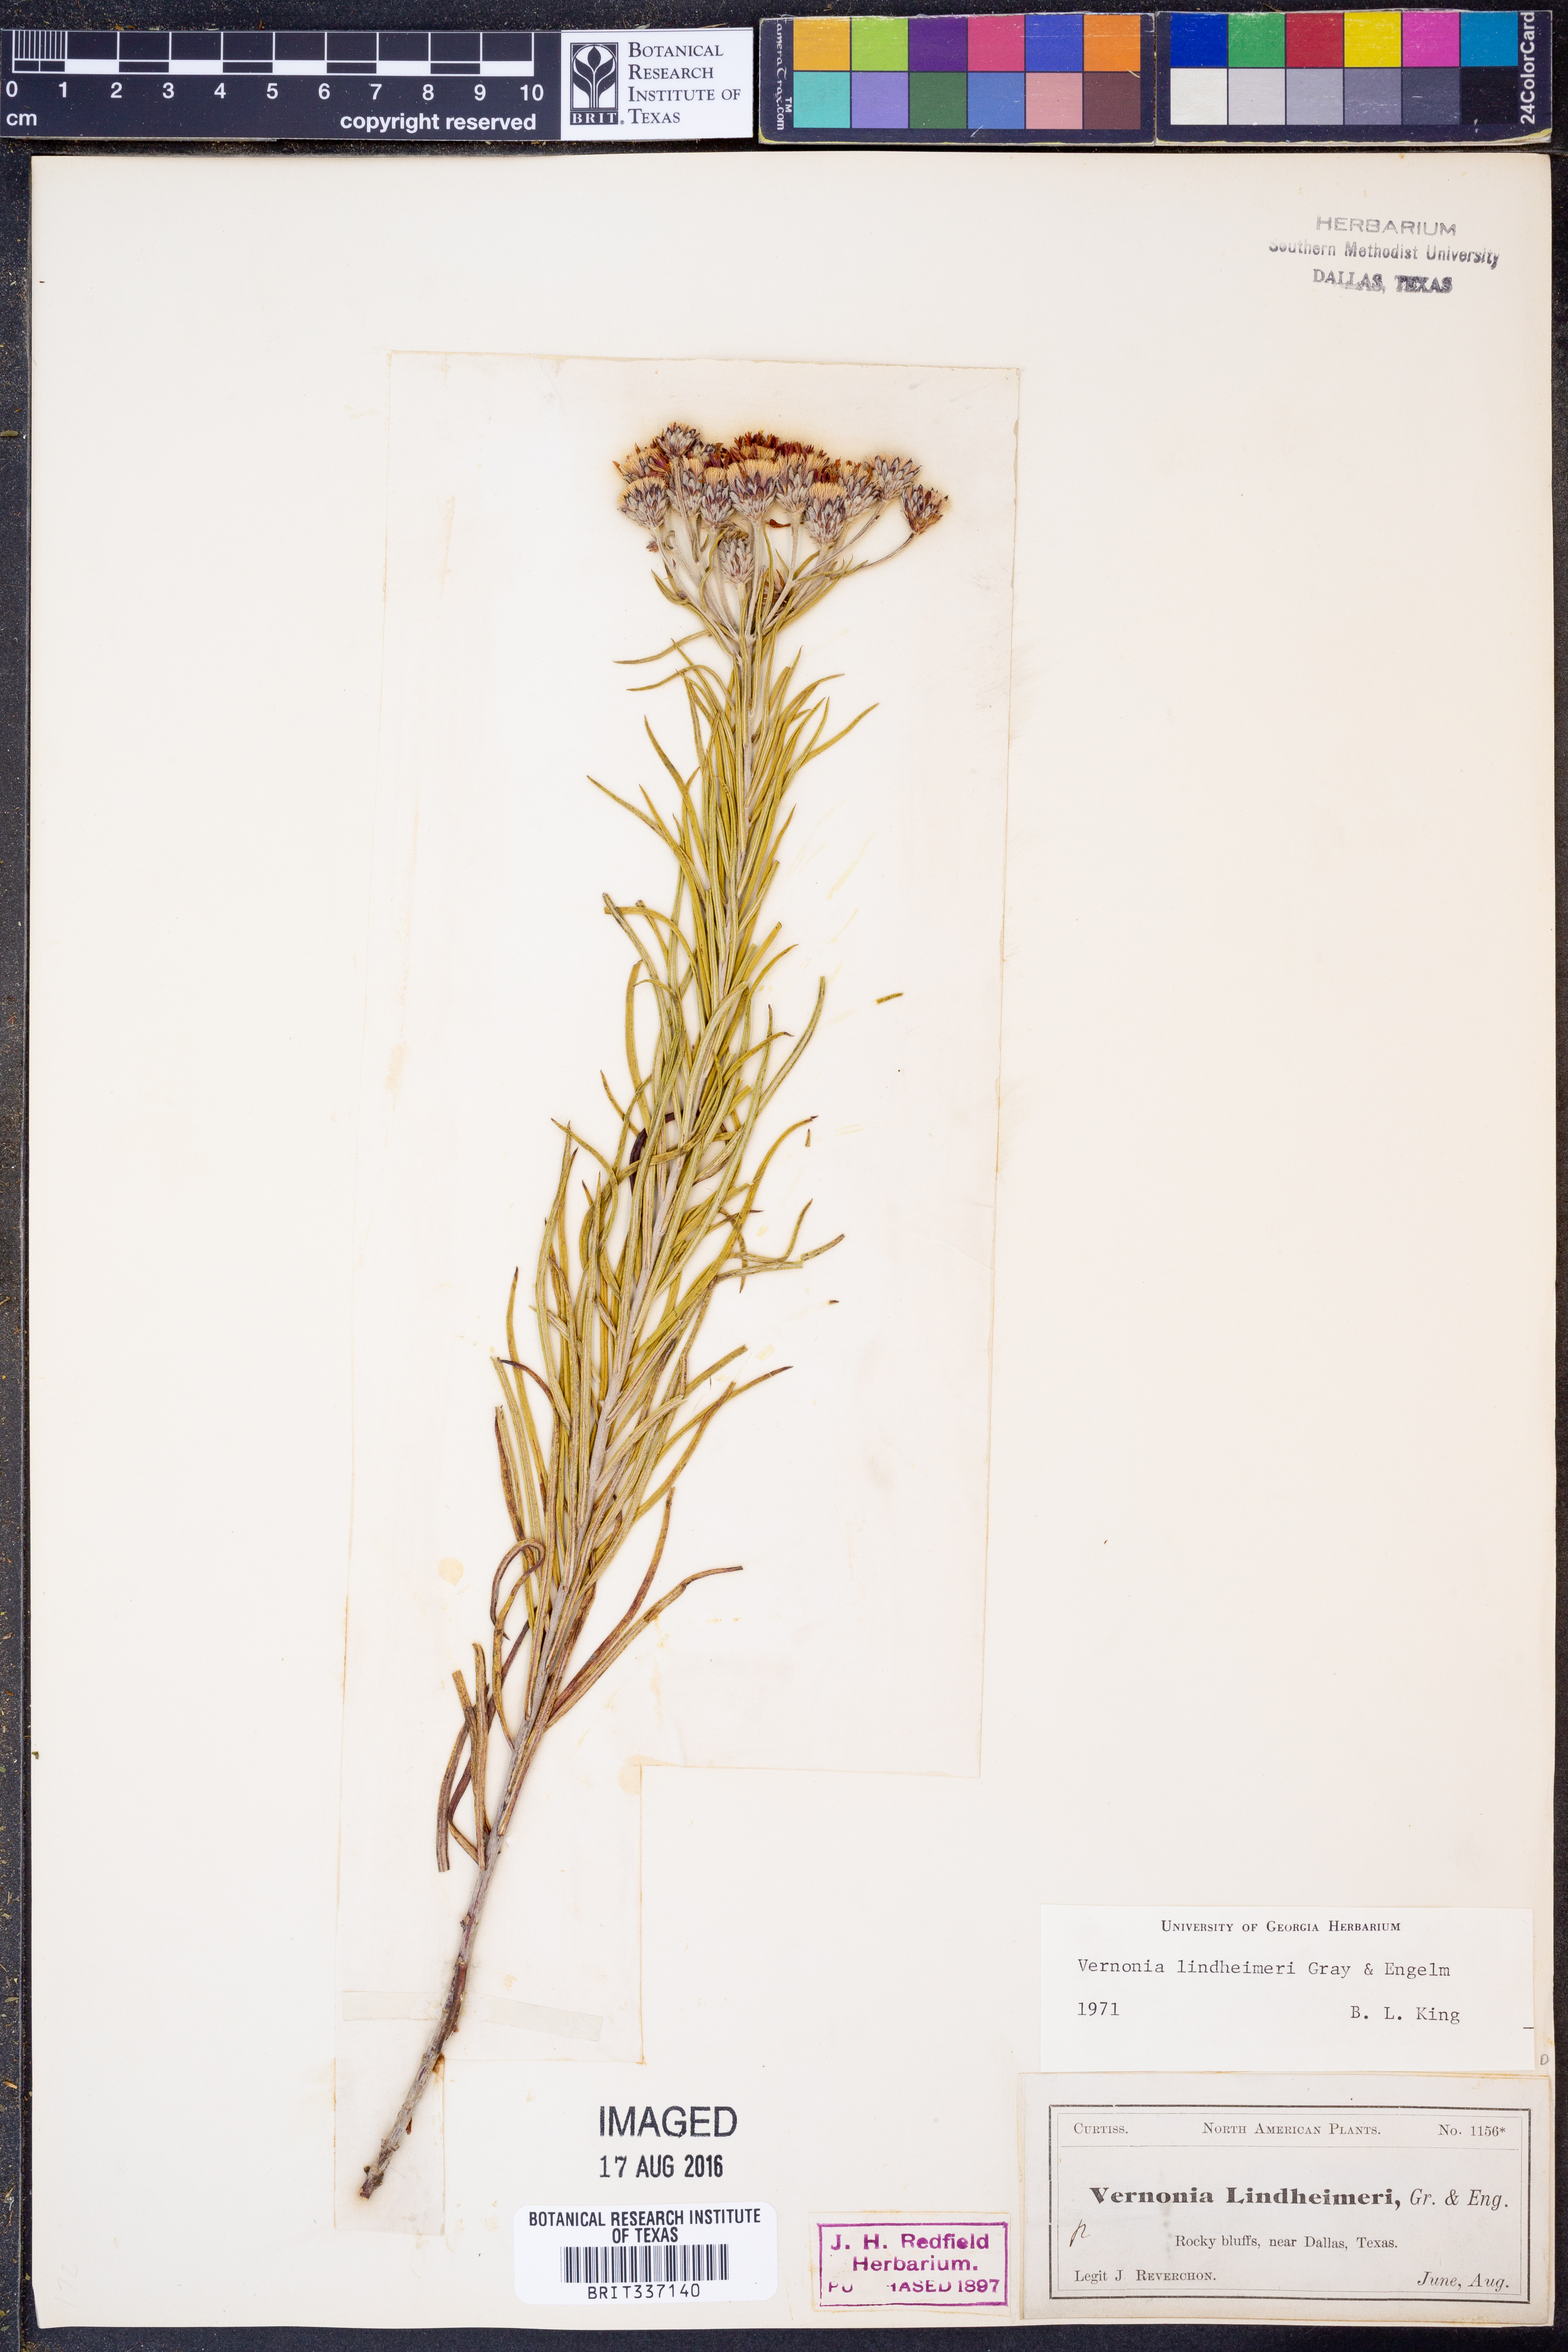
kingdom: Plantae
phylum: Tracheophyta
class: Magnoliopsida
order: Asterales
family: Asteraceae
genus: Vernonia
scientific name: Vernonia lindheimeri
